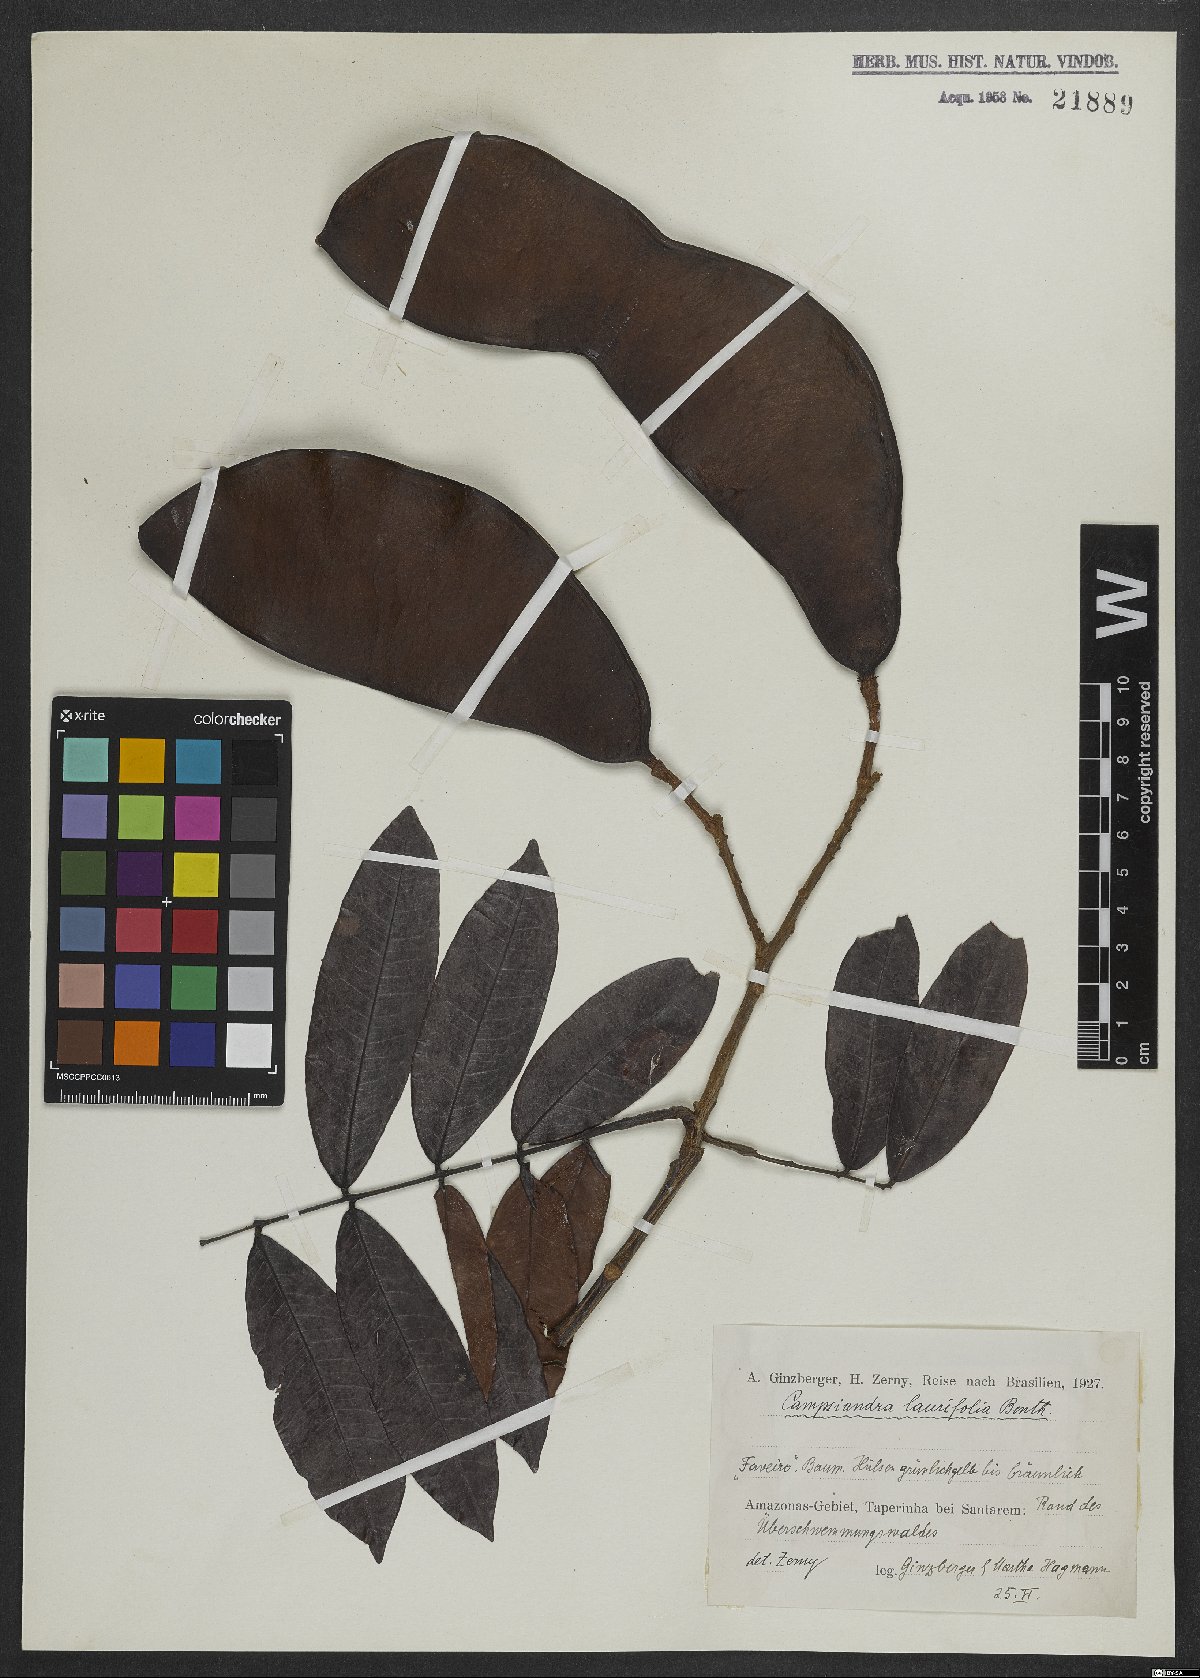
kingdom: Plantae
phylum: Tracheophyta
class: Magnoliopsida
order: Fabales
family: Fabaceae
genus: Campsiandra
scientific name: Campsiandra laurifolia
